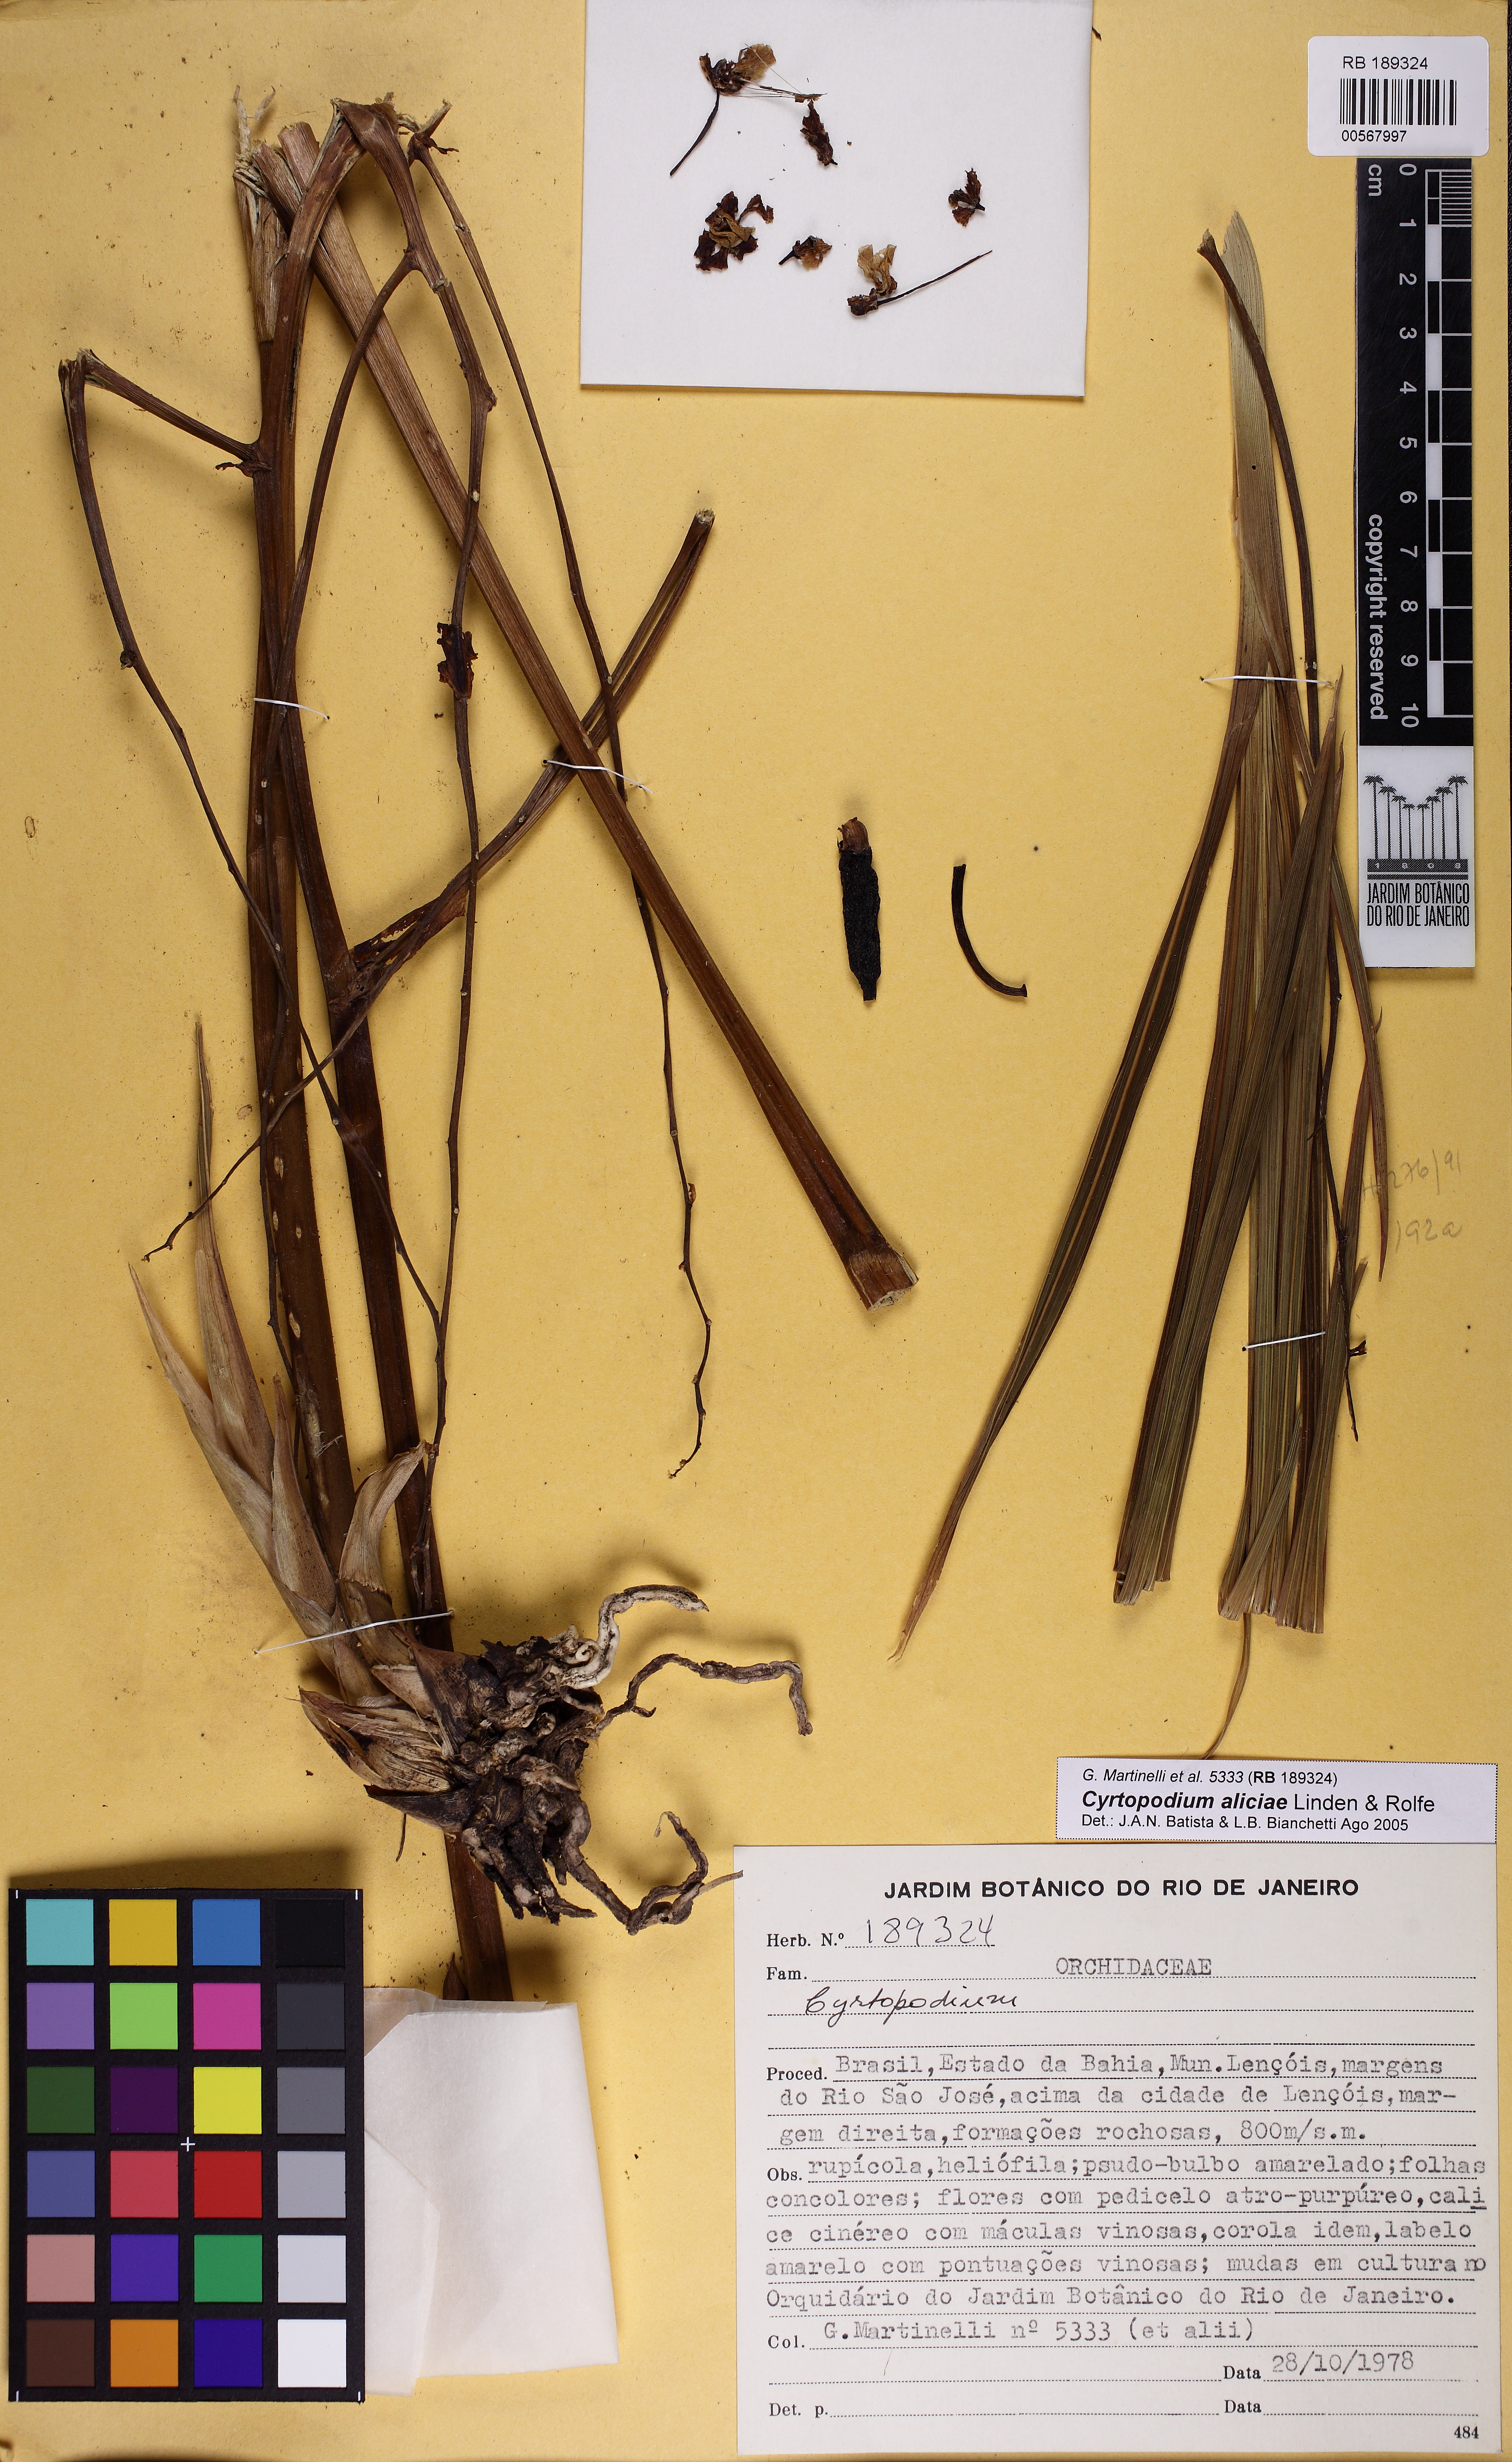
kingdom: Plantae
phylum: Tracheophyta
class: Liliopsida
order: Asparagales
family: Orchidaceae
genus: Cyrtopodium
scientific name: Cyrtopodium aliciae
